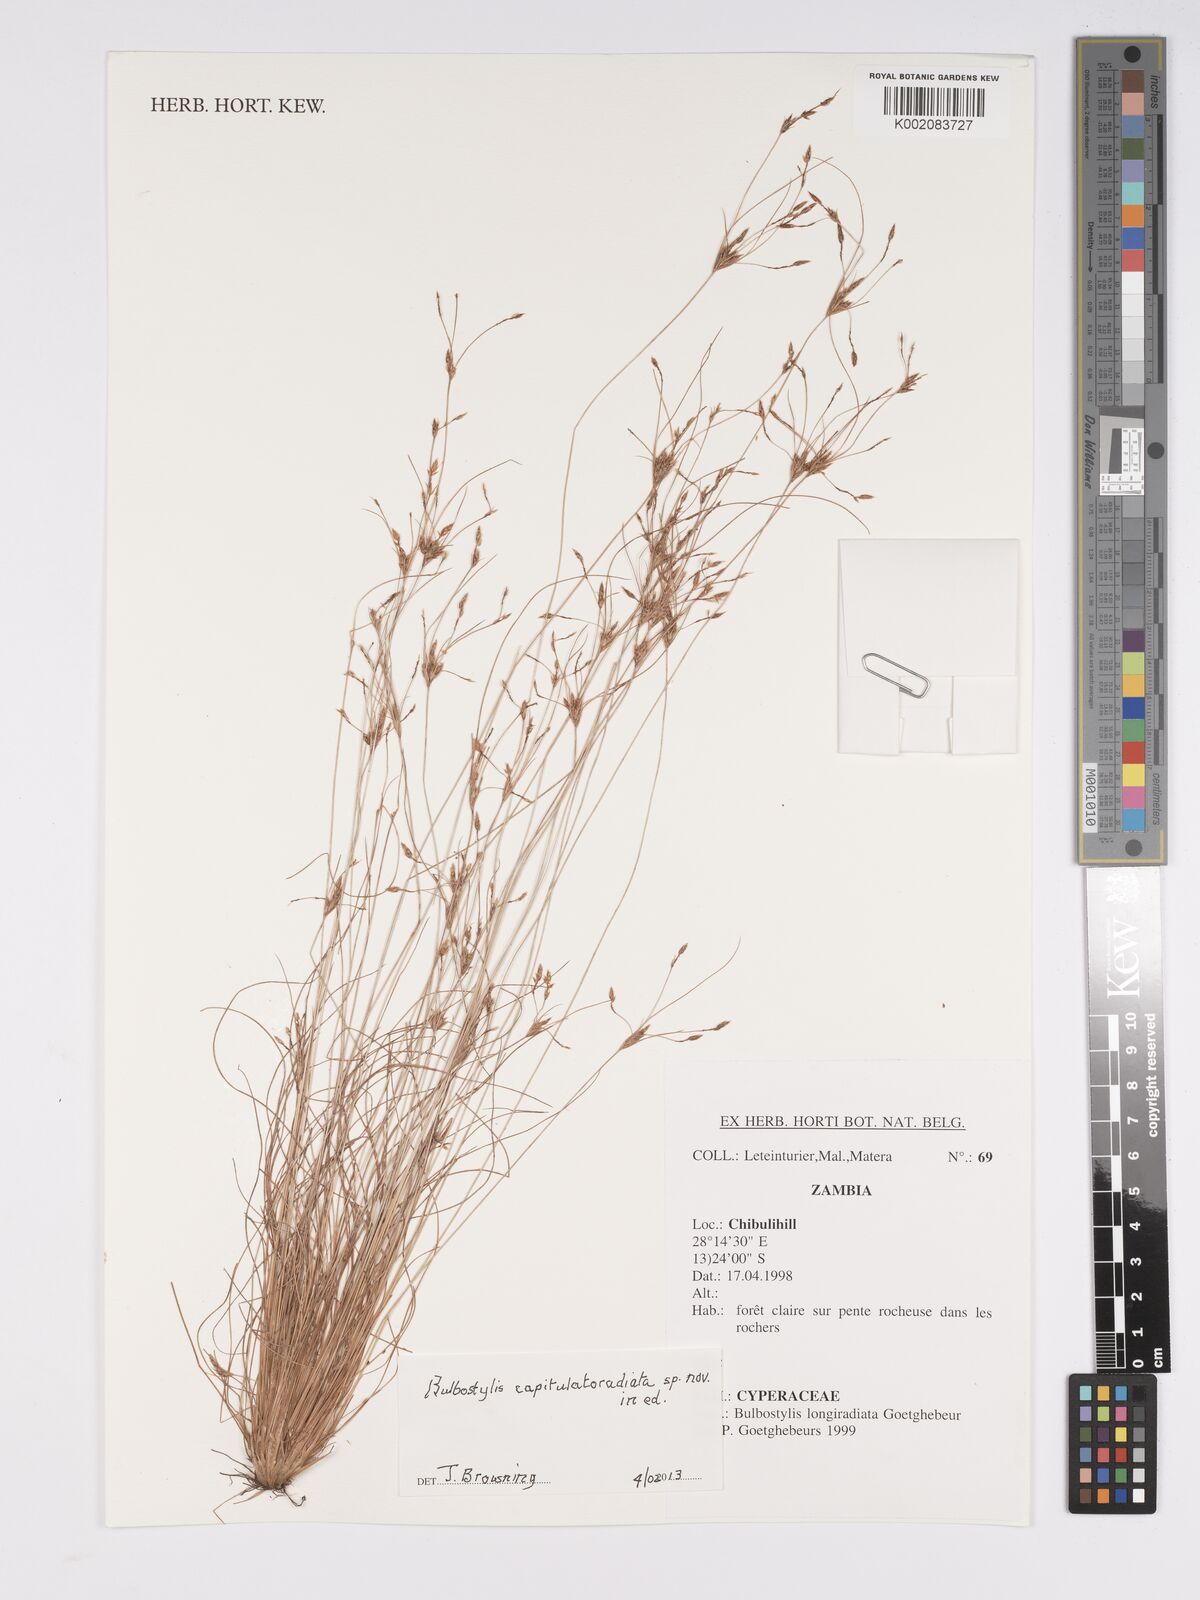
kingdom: Plantae
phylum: Tracheophyta
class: Liliopsida
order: Poales
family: Cyperaceae
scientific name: Cyperaceae
